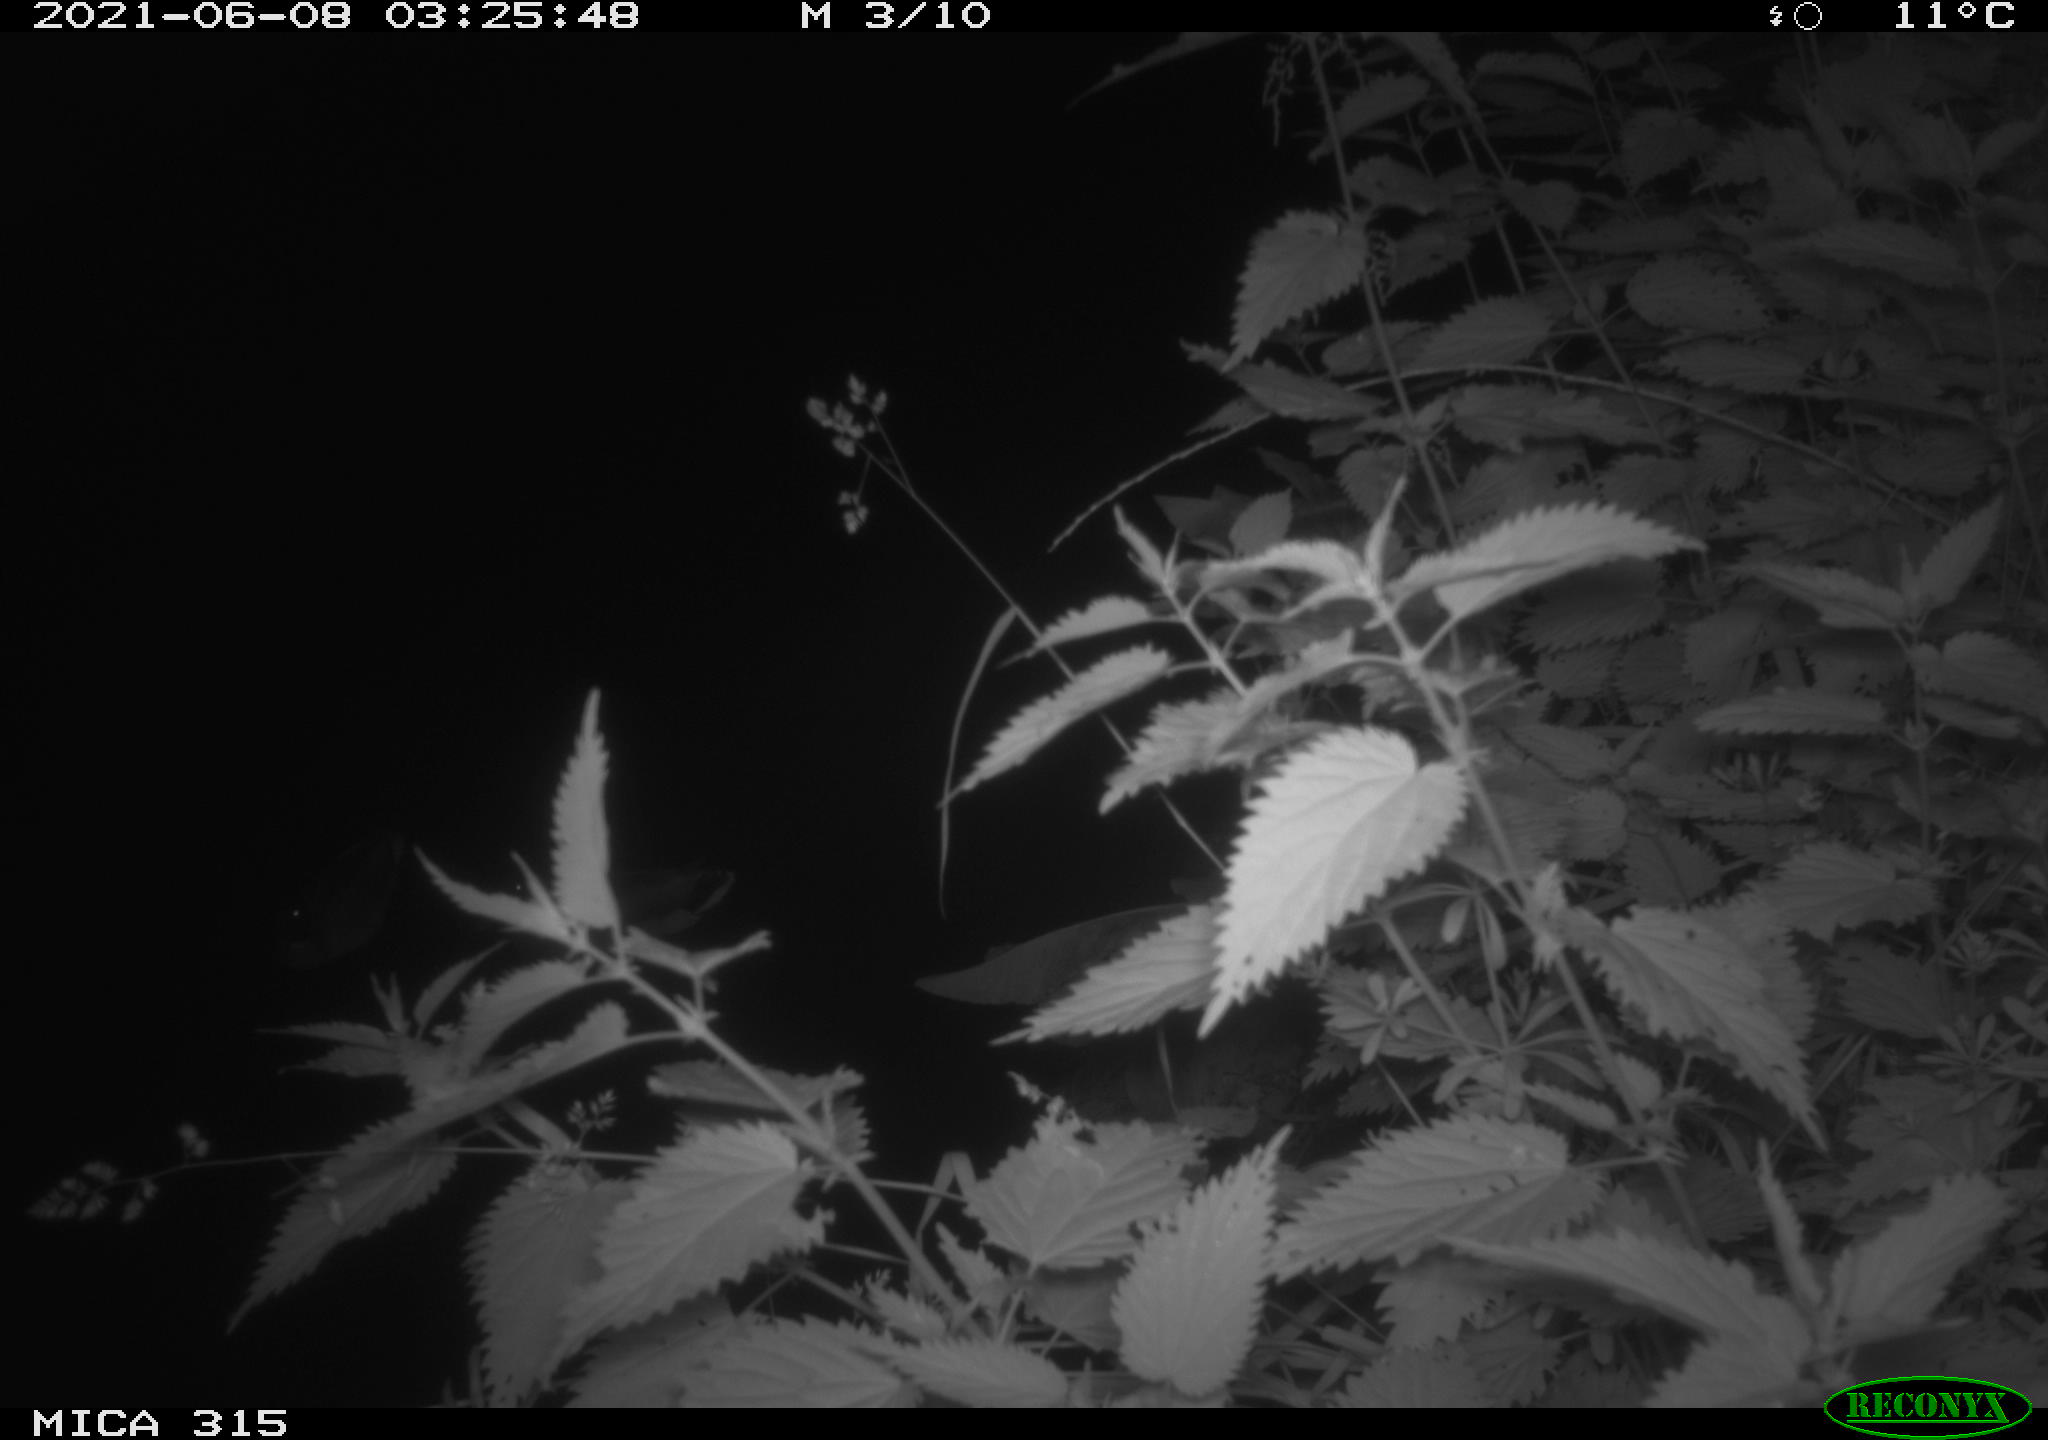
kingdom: Animalia
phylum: Chordata
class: Aves
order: Anseriformes
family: Anatidae
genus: Anas
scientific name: Anas platyrhynchos
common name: Mallard
